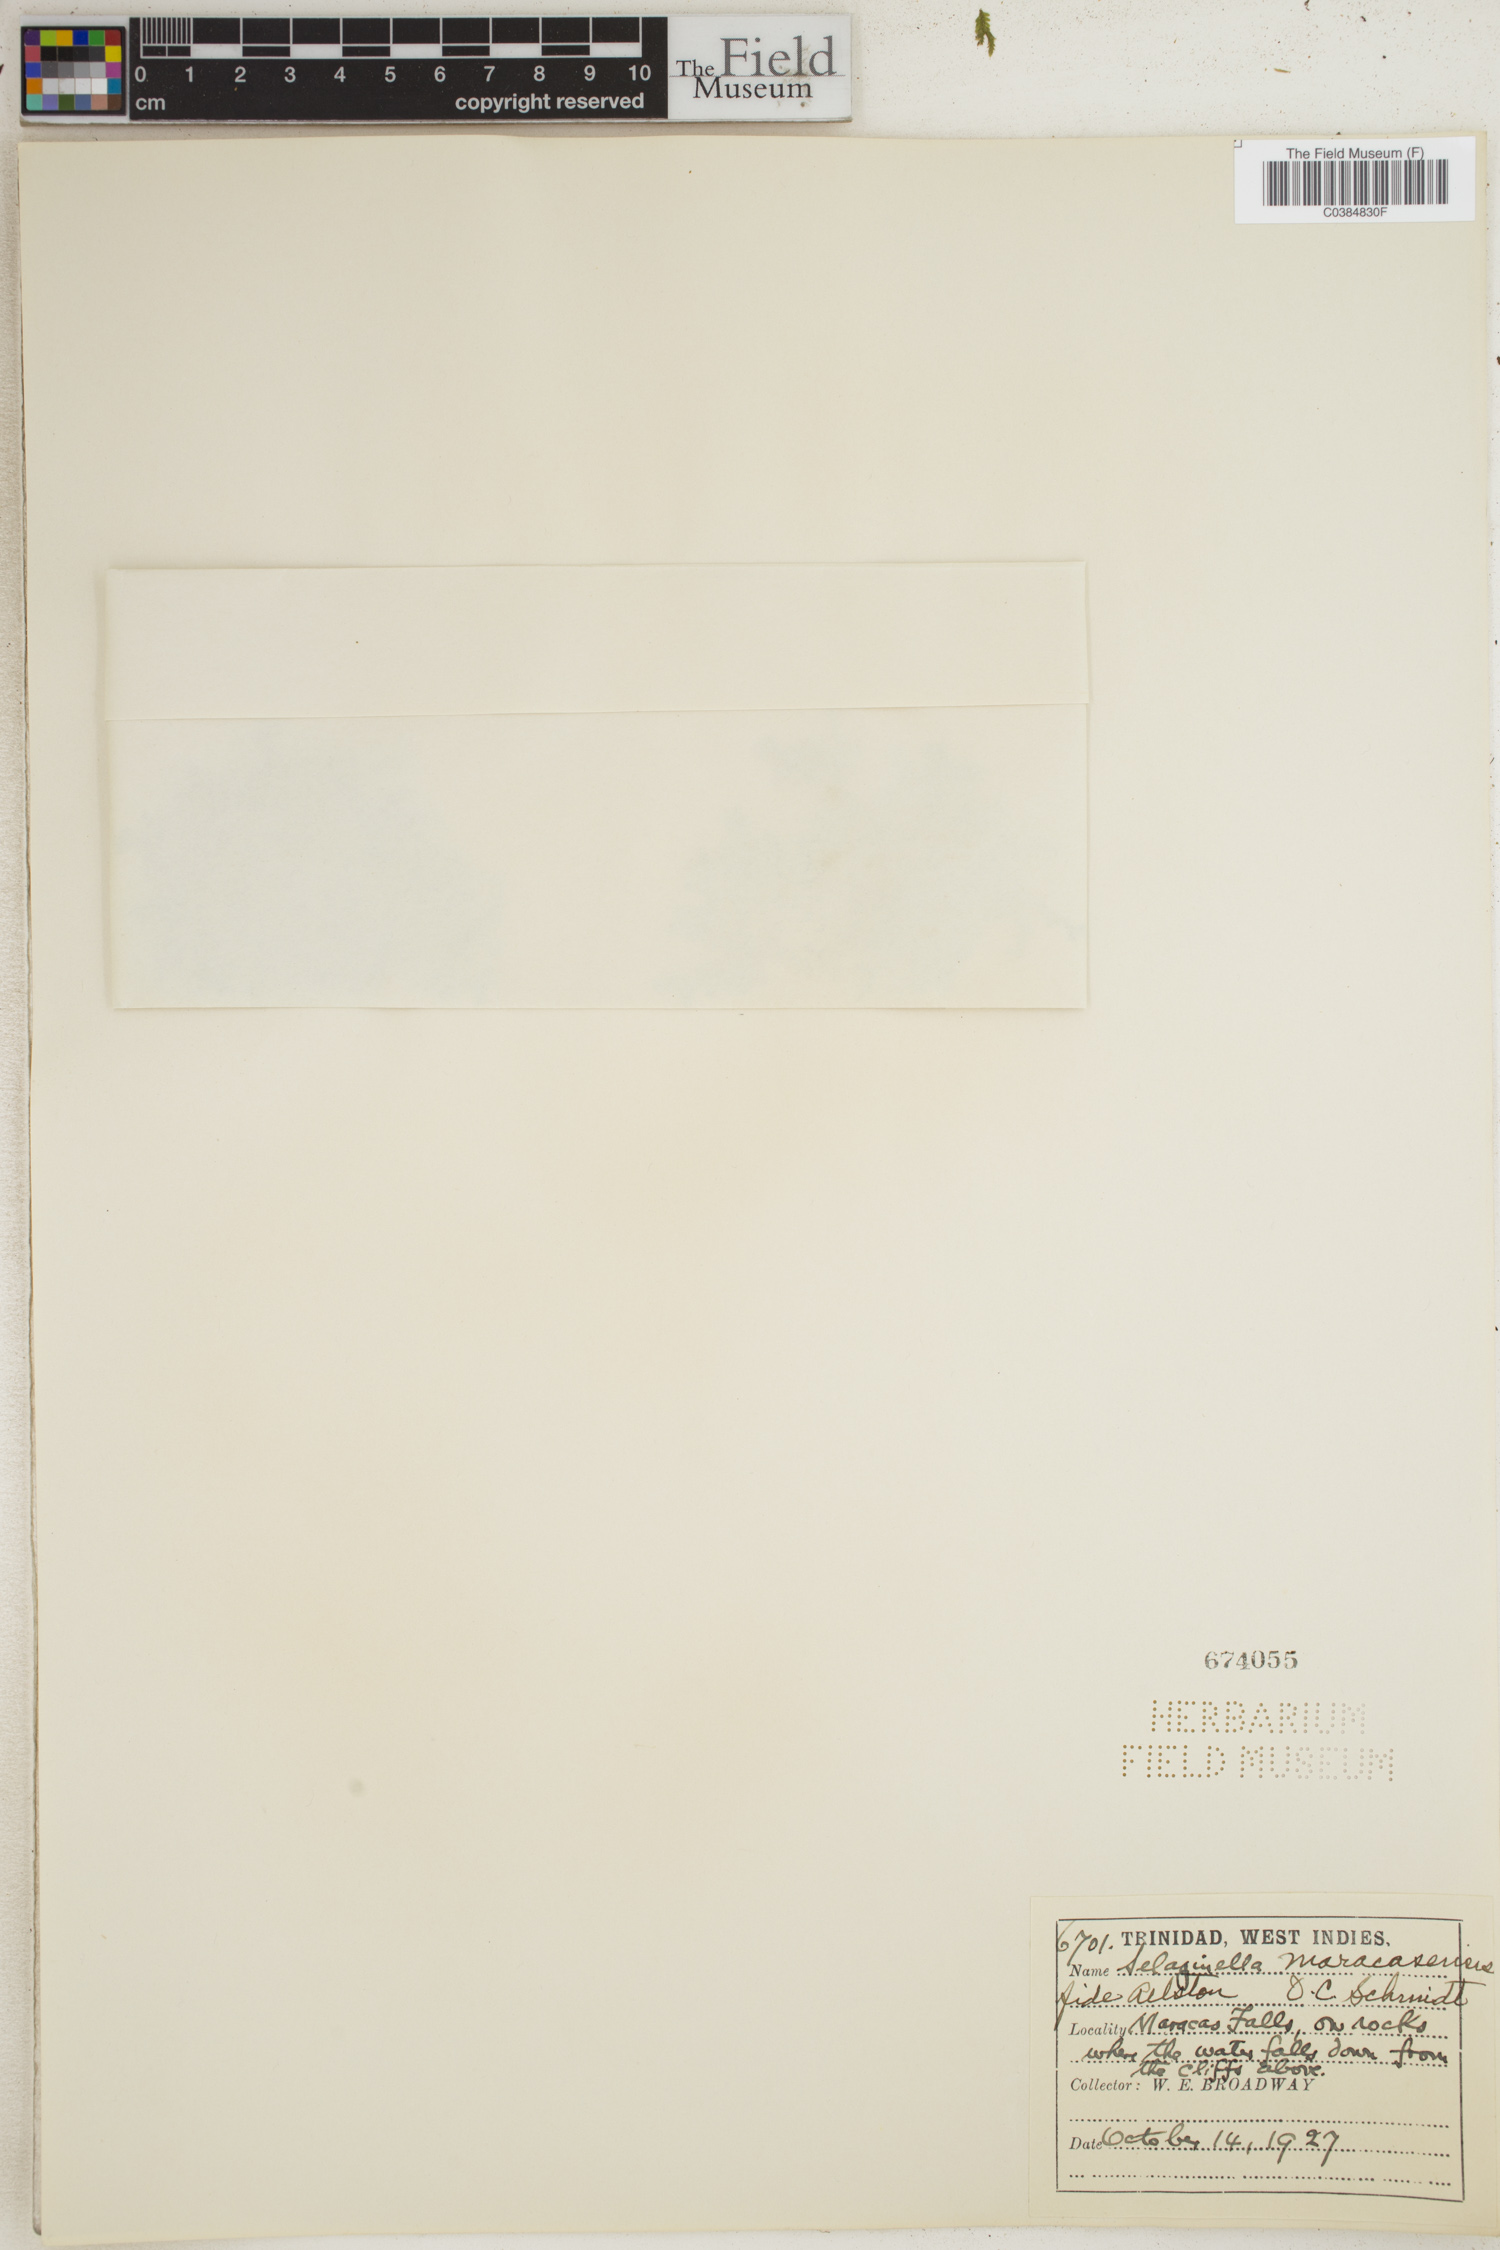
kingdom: Plantae
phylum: Tracheophyta
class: Lycopodiopsida
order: Selaginellales
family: Selaginellaceae
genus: Selaginella
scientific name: Selaginella
